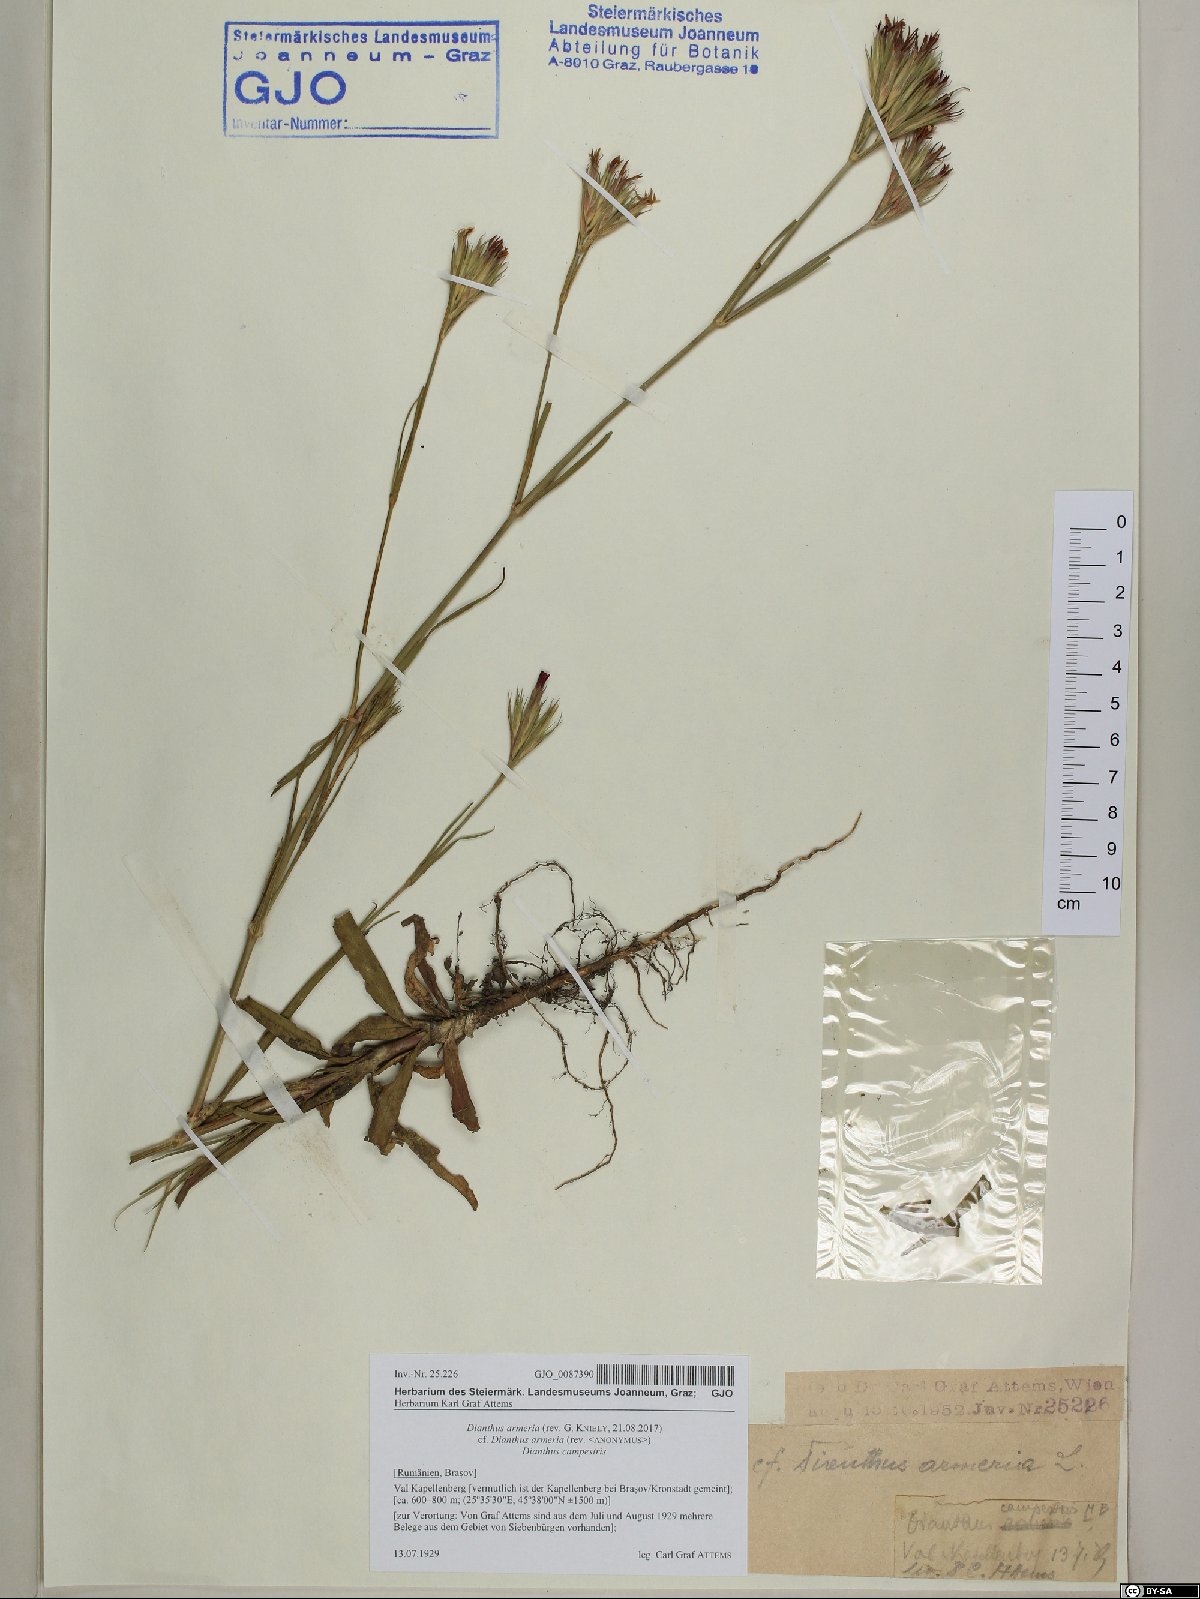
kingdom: Plantae
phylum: Tracheophyta
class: Magnoliopsida
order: Caryophyllales
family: Caryophyllaceae
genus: Dianthus
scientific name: Dianthus armeria
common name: Deptford pink
